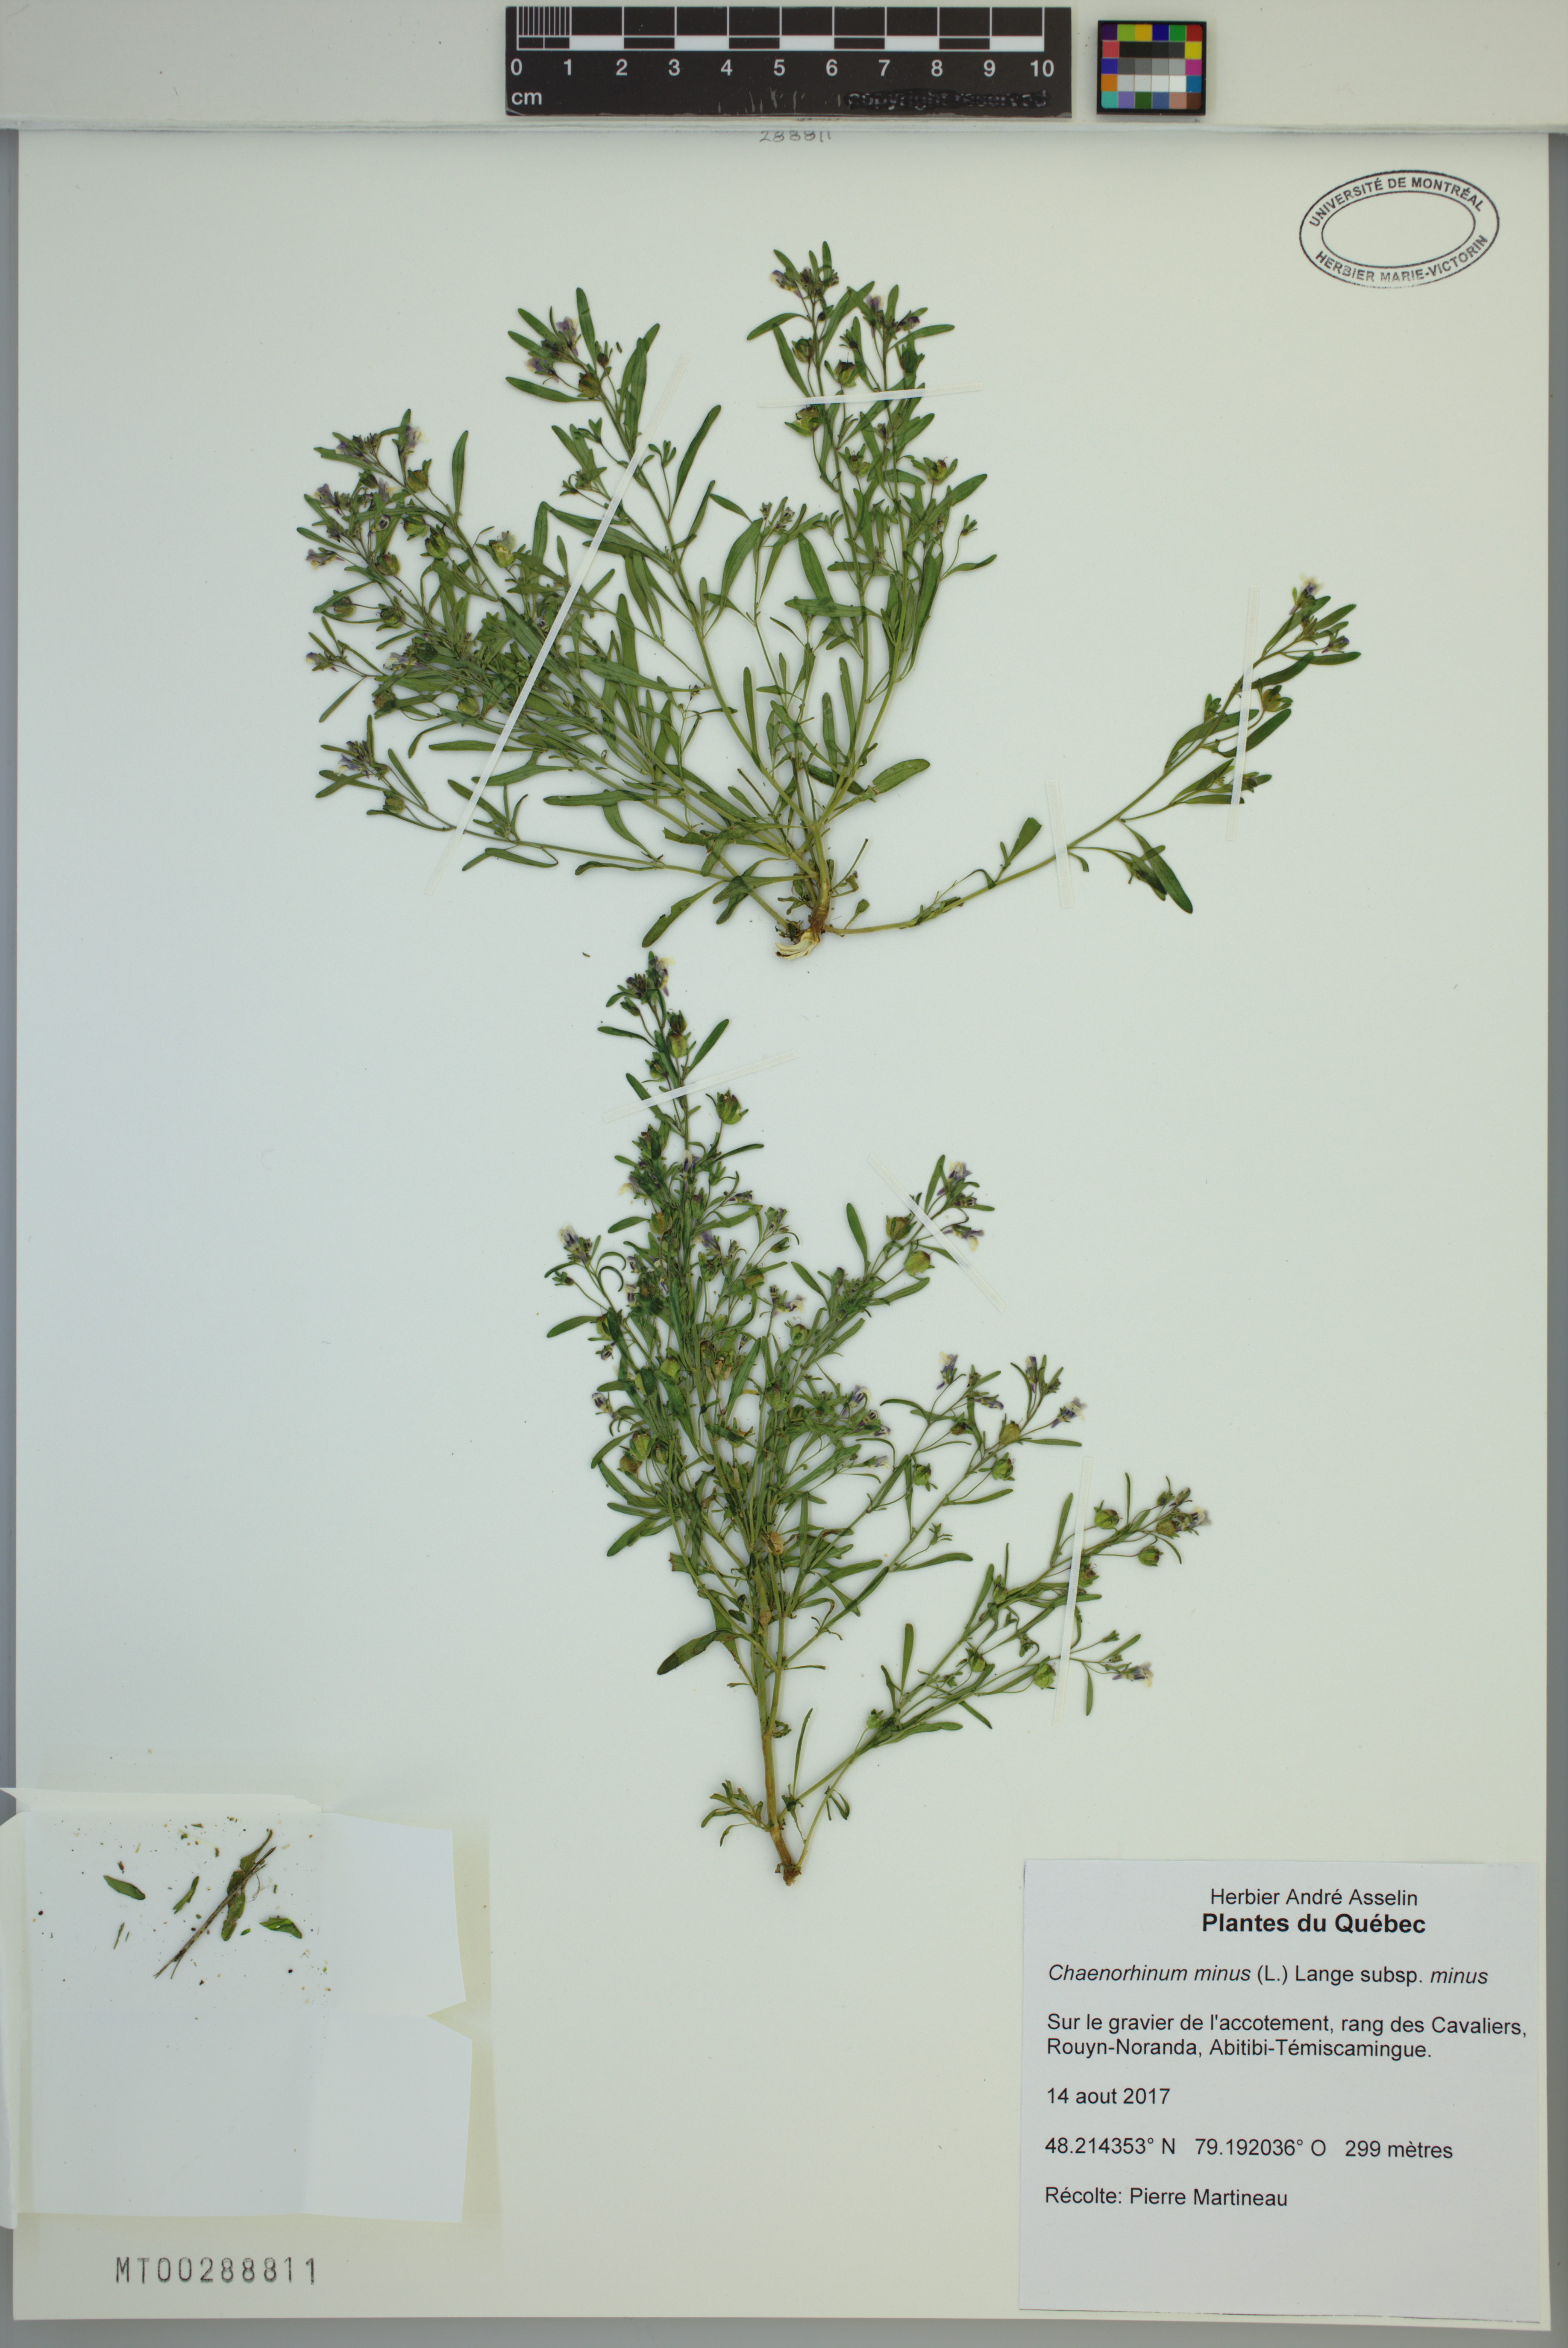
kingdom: Plantae
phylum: Tracheophyta
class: Magnoliopsida
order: Lamiales
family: Plantaginaceae
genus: Chaenorhinum
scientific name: Chaenorhinum minus
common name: Dwarf snapdragon
